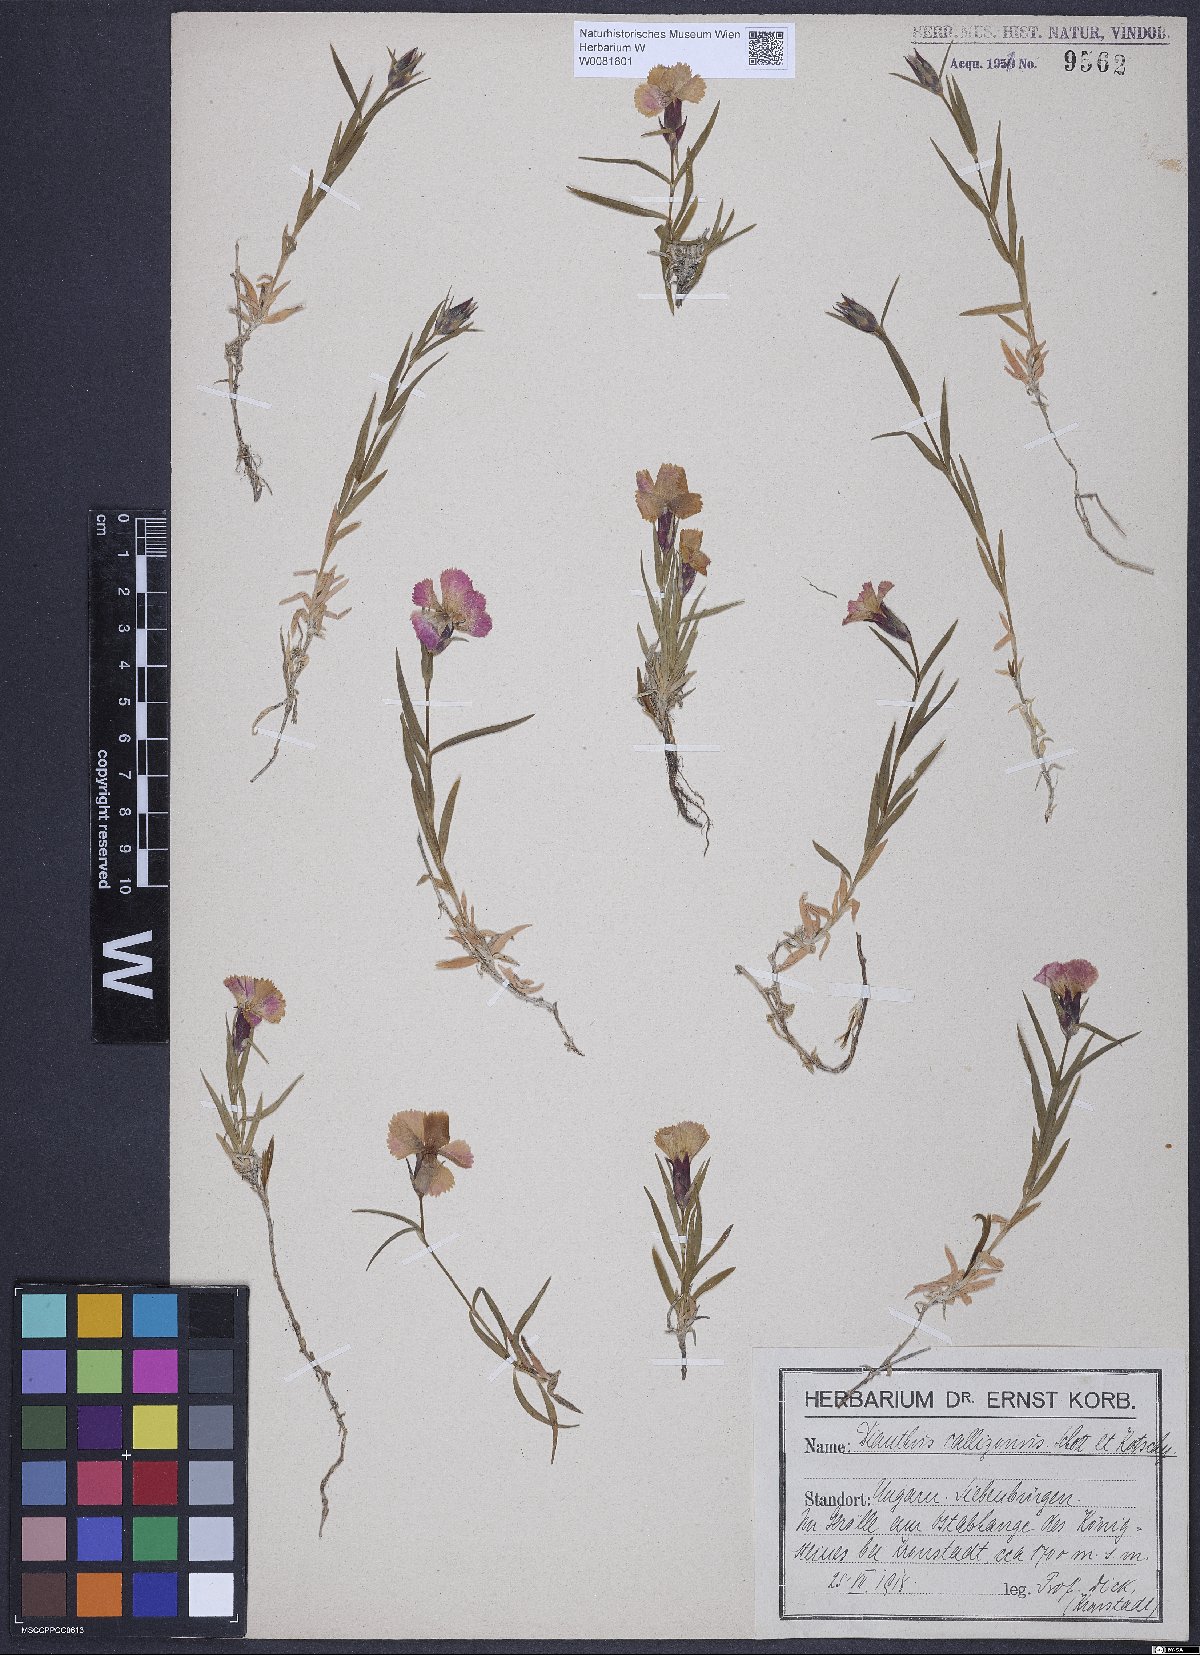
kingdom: Plantae
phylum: Tracheophyta
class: Magnoliopsida
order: Caryophyllales
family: Caryophyllaceae
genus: Dianthus
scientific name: Dianthus callizonus
